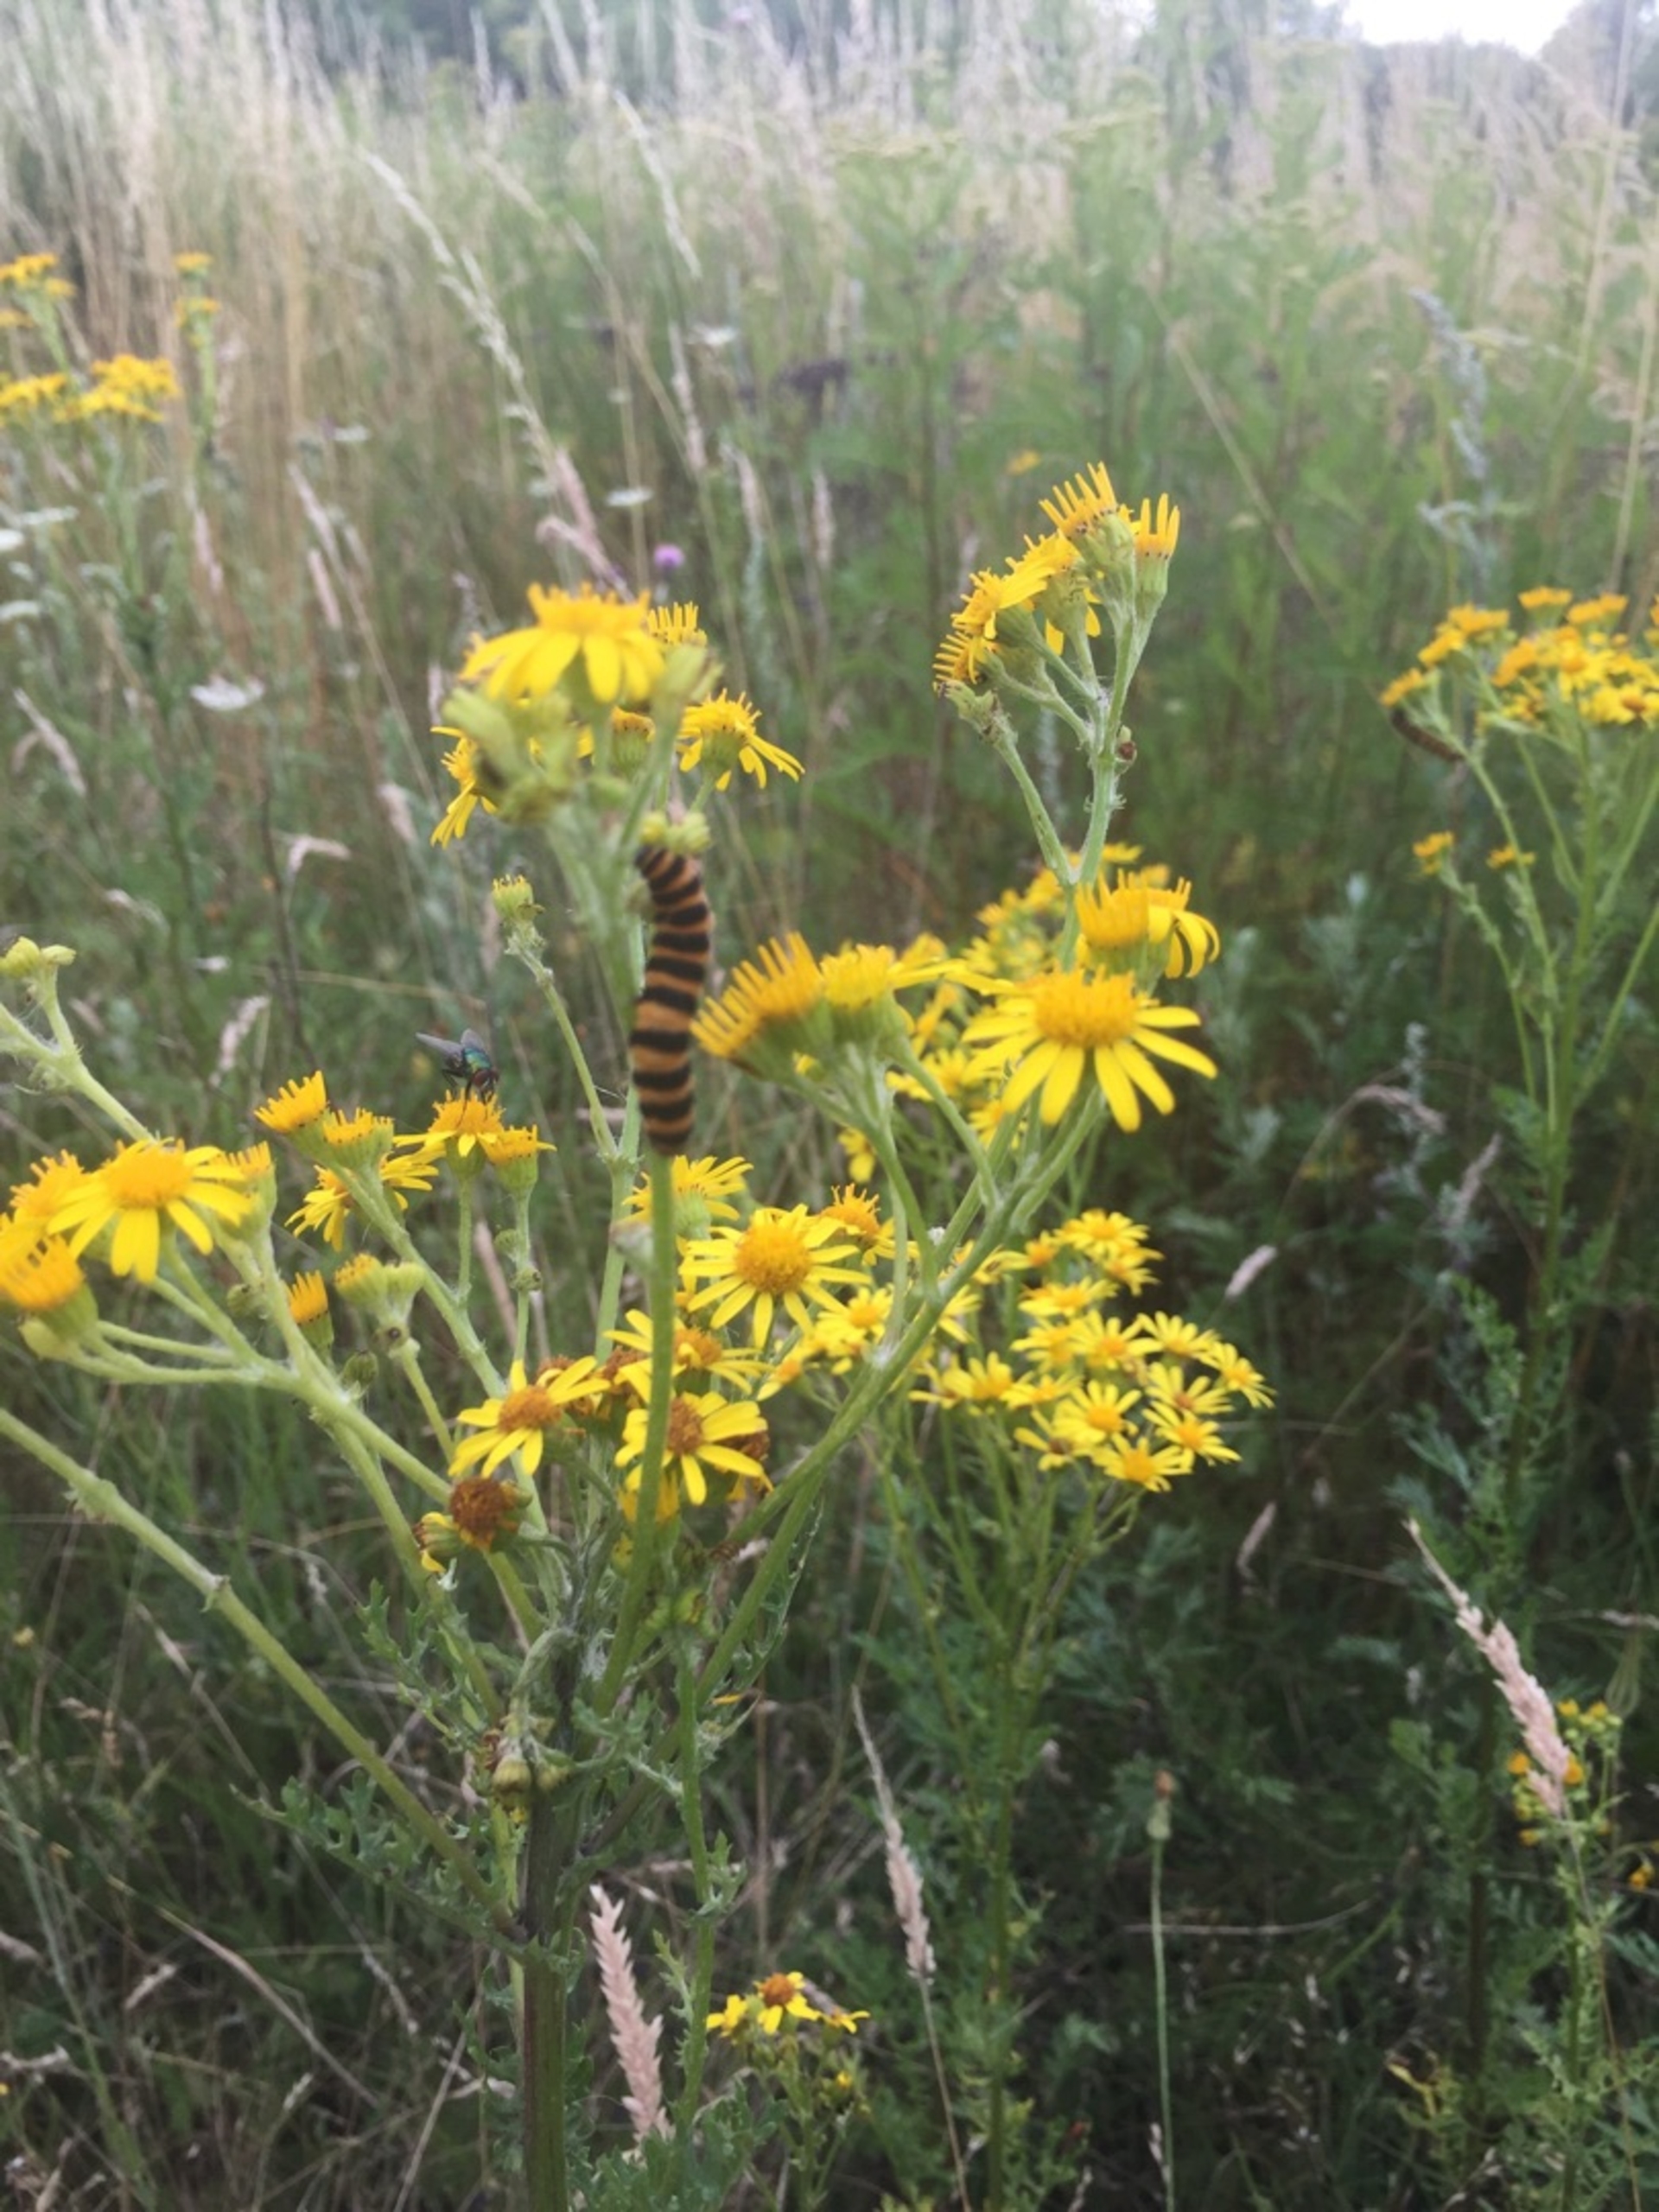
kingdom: Animalia
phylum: Arthropoda
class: Insecta
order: Lepidoptera
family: Erebidae
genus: Tyria
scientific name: Tyria jacobaeae
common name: Blodplet
